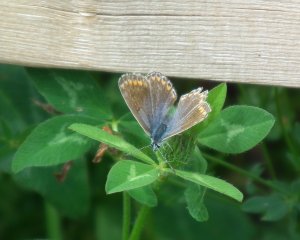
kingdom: Animalia
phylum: Arthropoda
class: Insecta
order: Lepidoptera
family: Lycaenidae
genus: Polyommatus
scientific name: Polyommatus icarus
